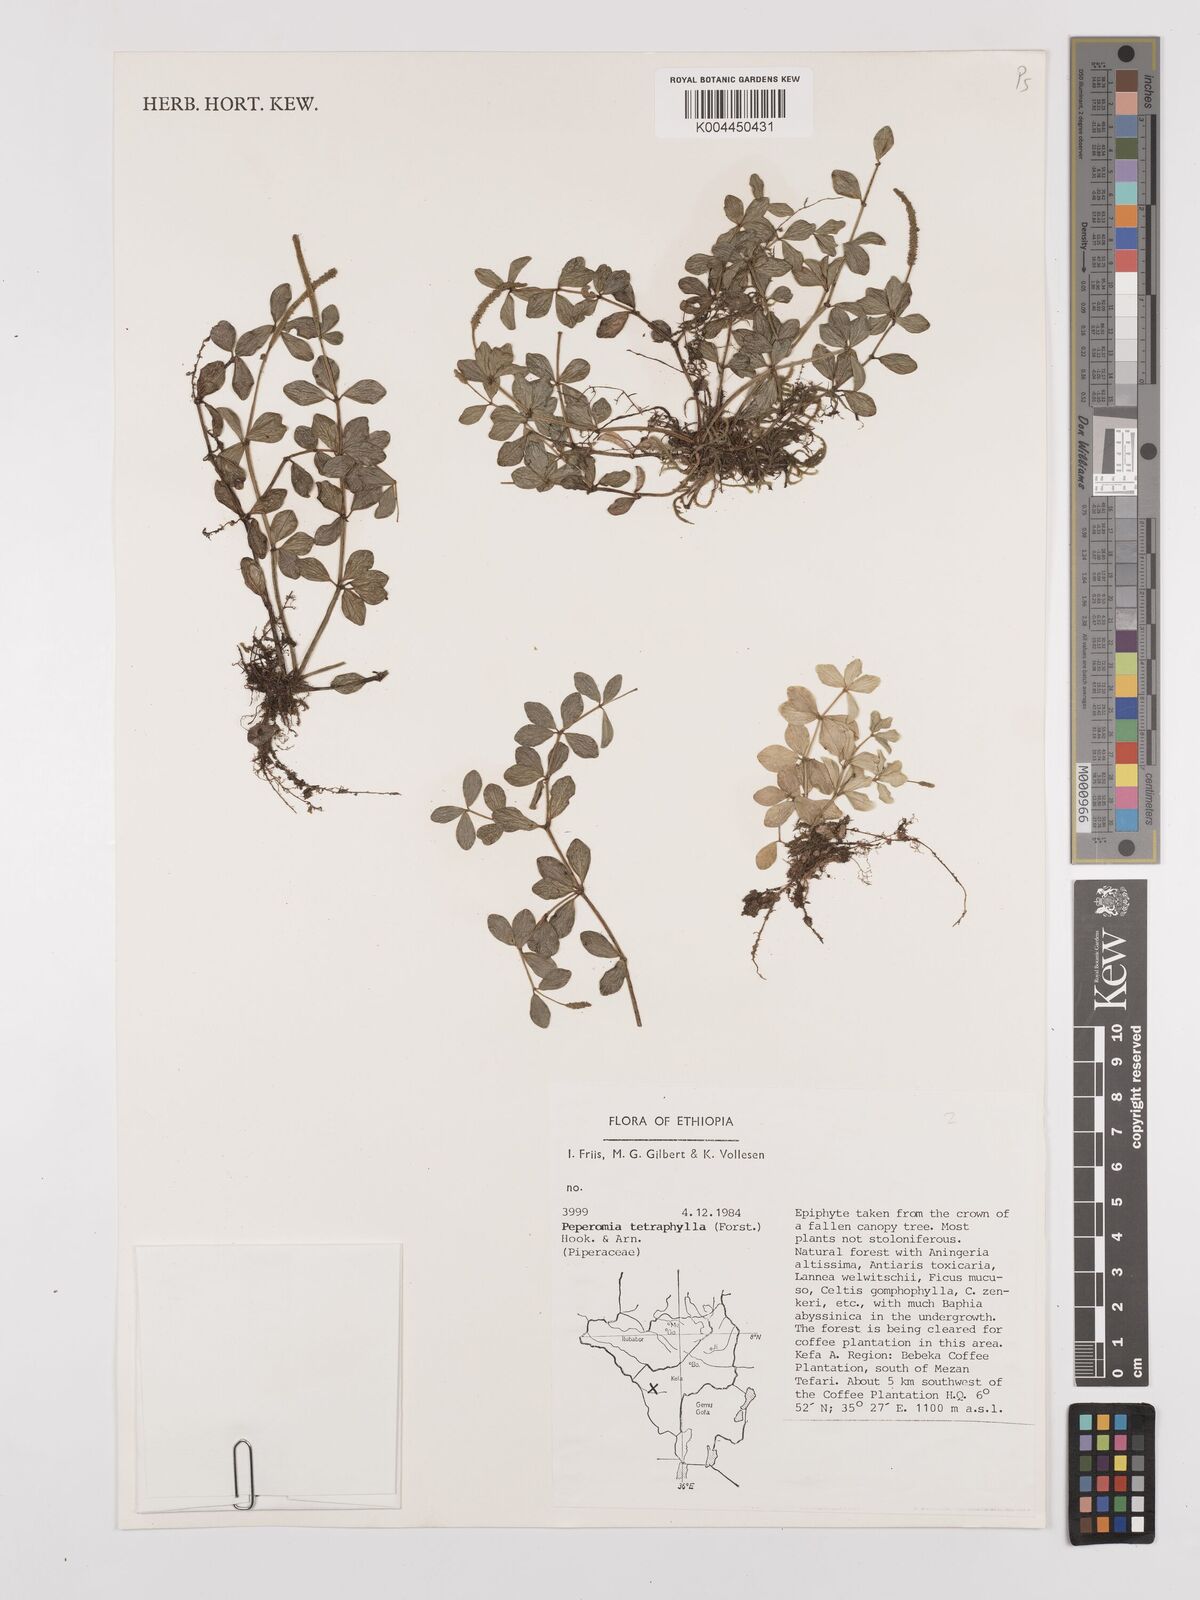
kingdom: Plantae
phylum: Tracheophyta
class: Magnoliopsida
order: Piperales
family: Piperaceae
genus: Peperomia
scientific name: Peperomia tetraphylla
